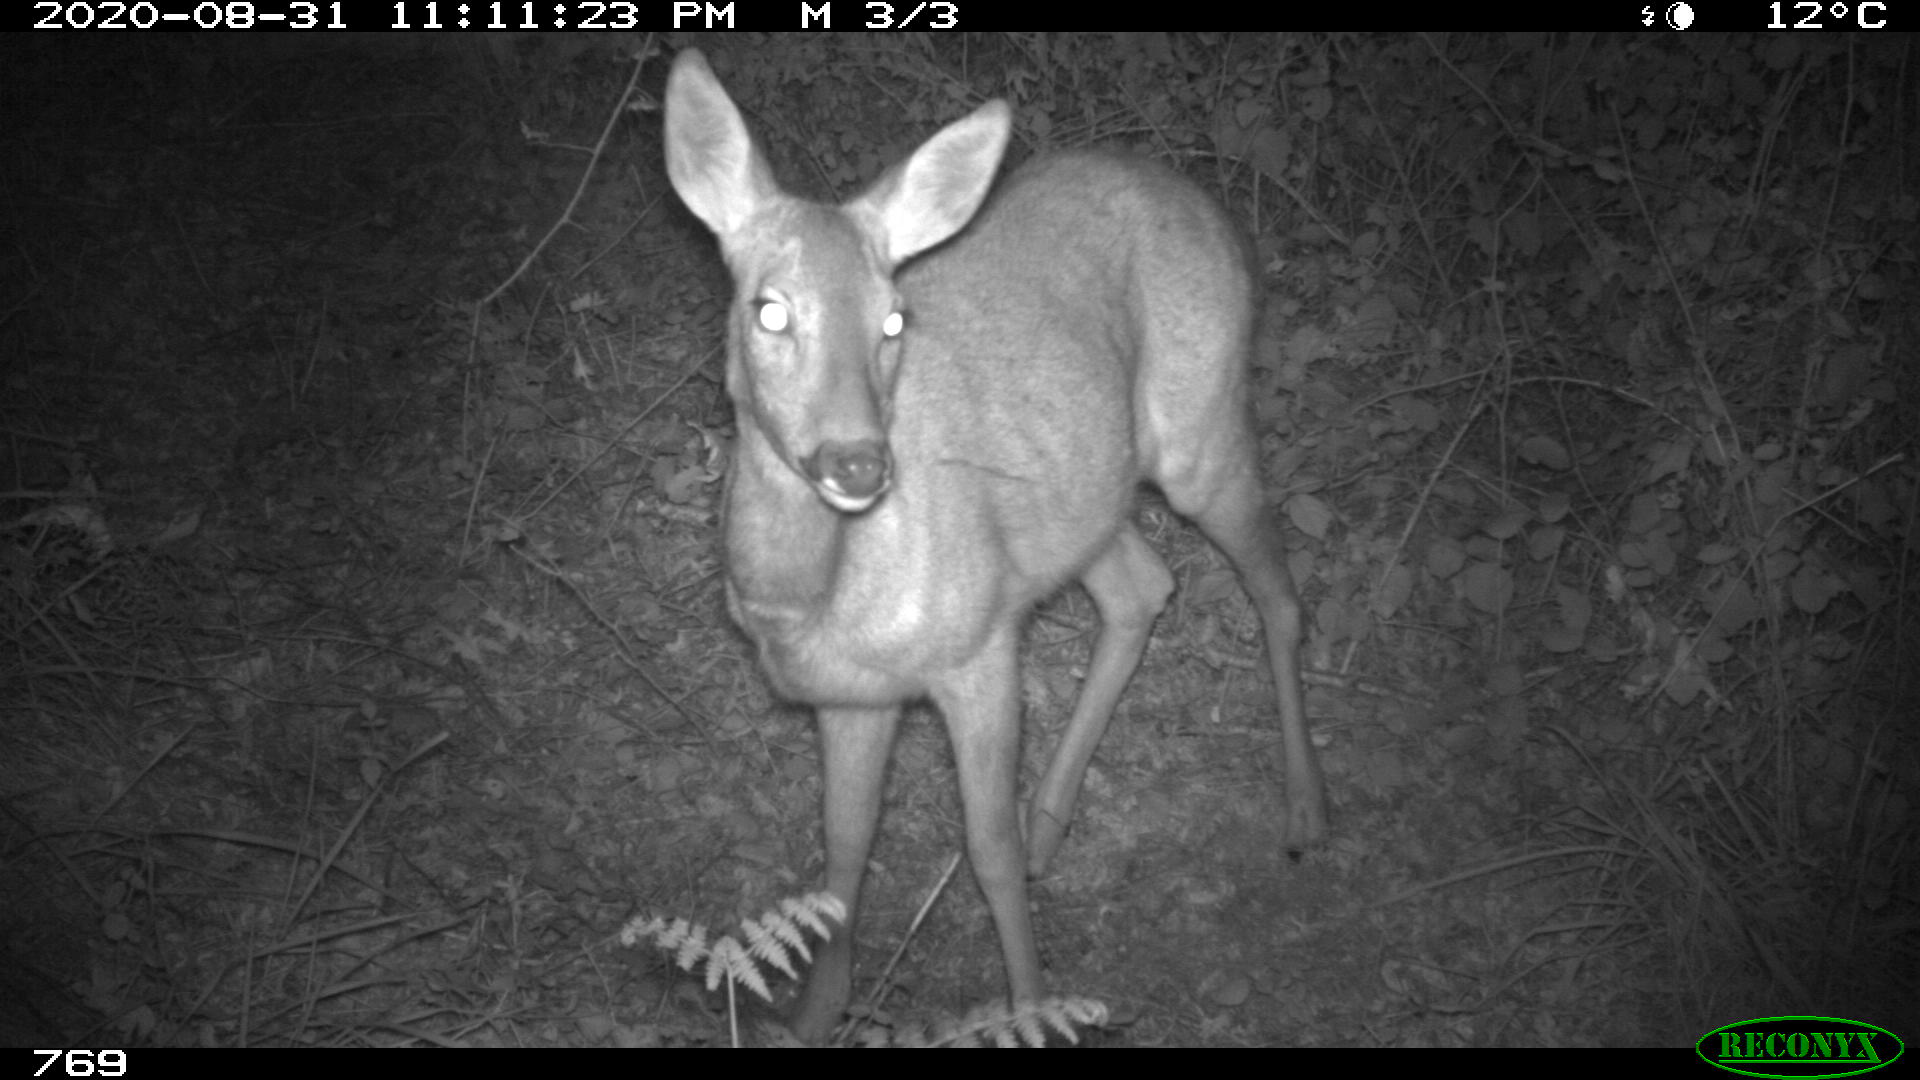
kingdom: Animalia
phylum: Chordata
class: Mammalia
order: Artiodactyla
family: Cervidae
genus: Capreolus
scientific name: Capreolus capreolus
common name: Western roe deer
